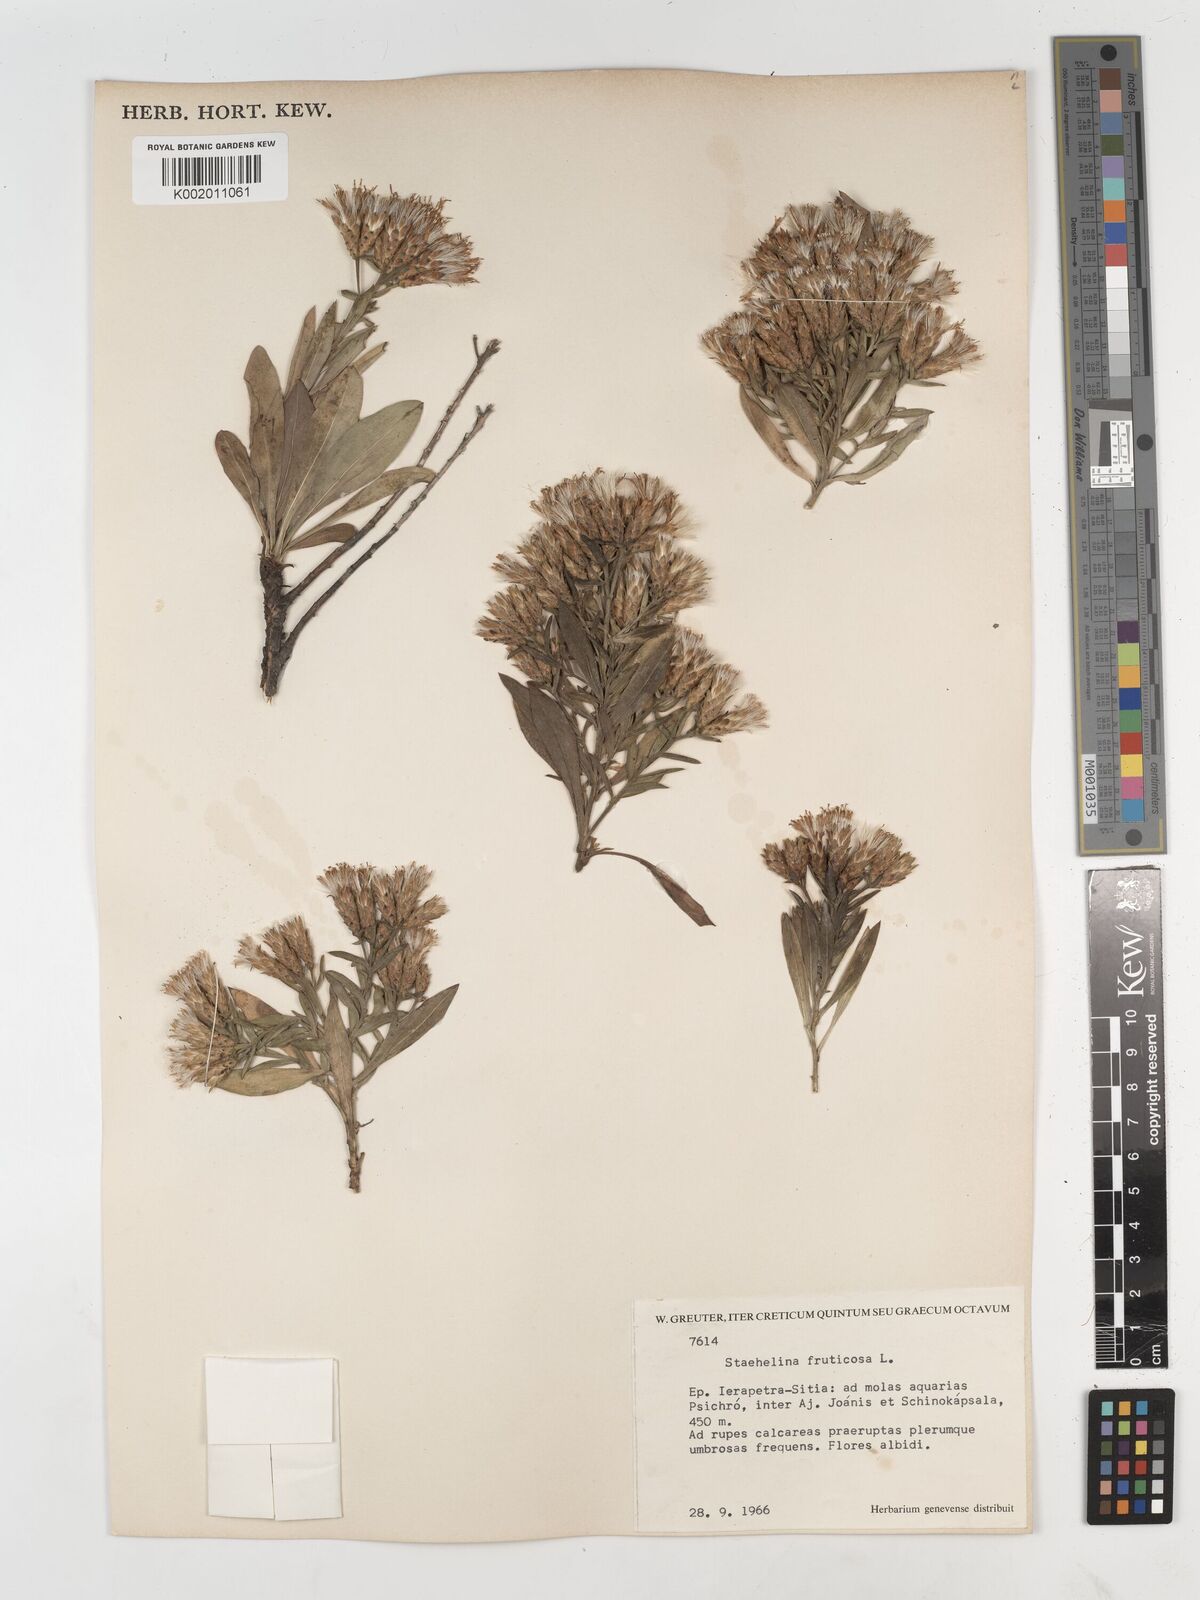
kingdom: Plantae
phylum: Tracheophyta
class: Magnoliopsida
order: Asterales
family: Asteraceae
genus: Hirtellina
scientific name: Hirtellina fruticosa
